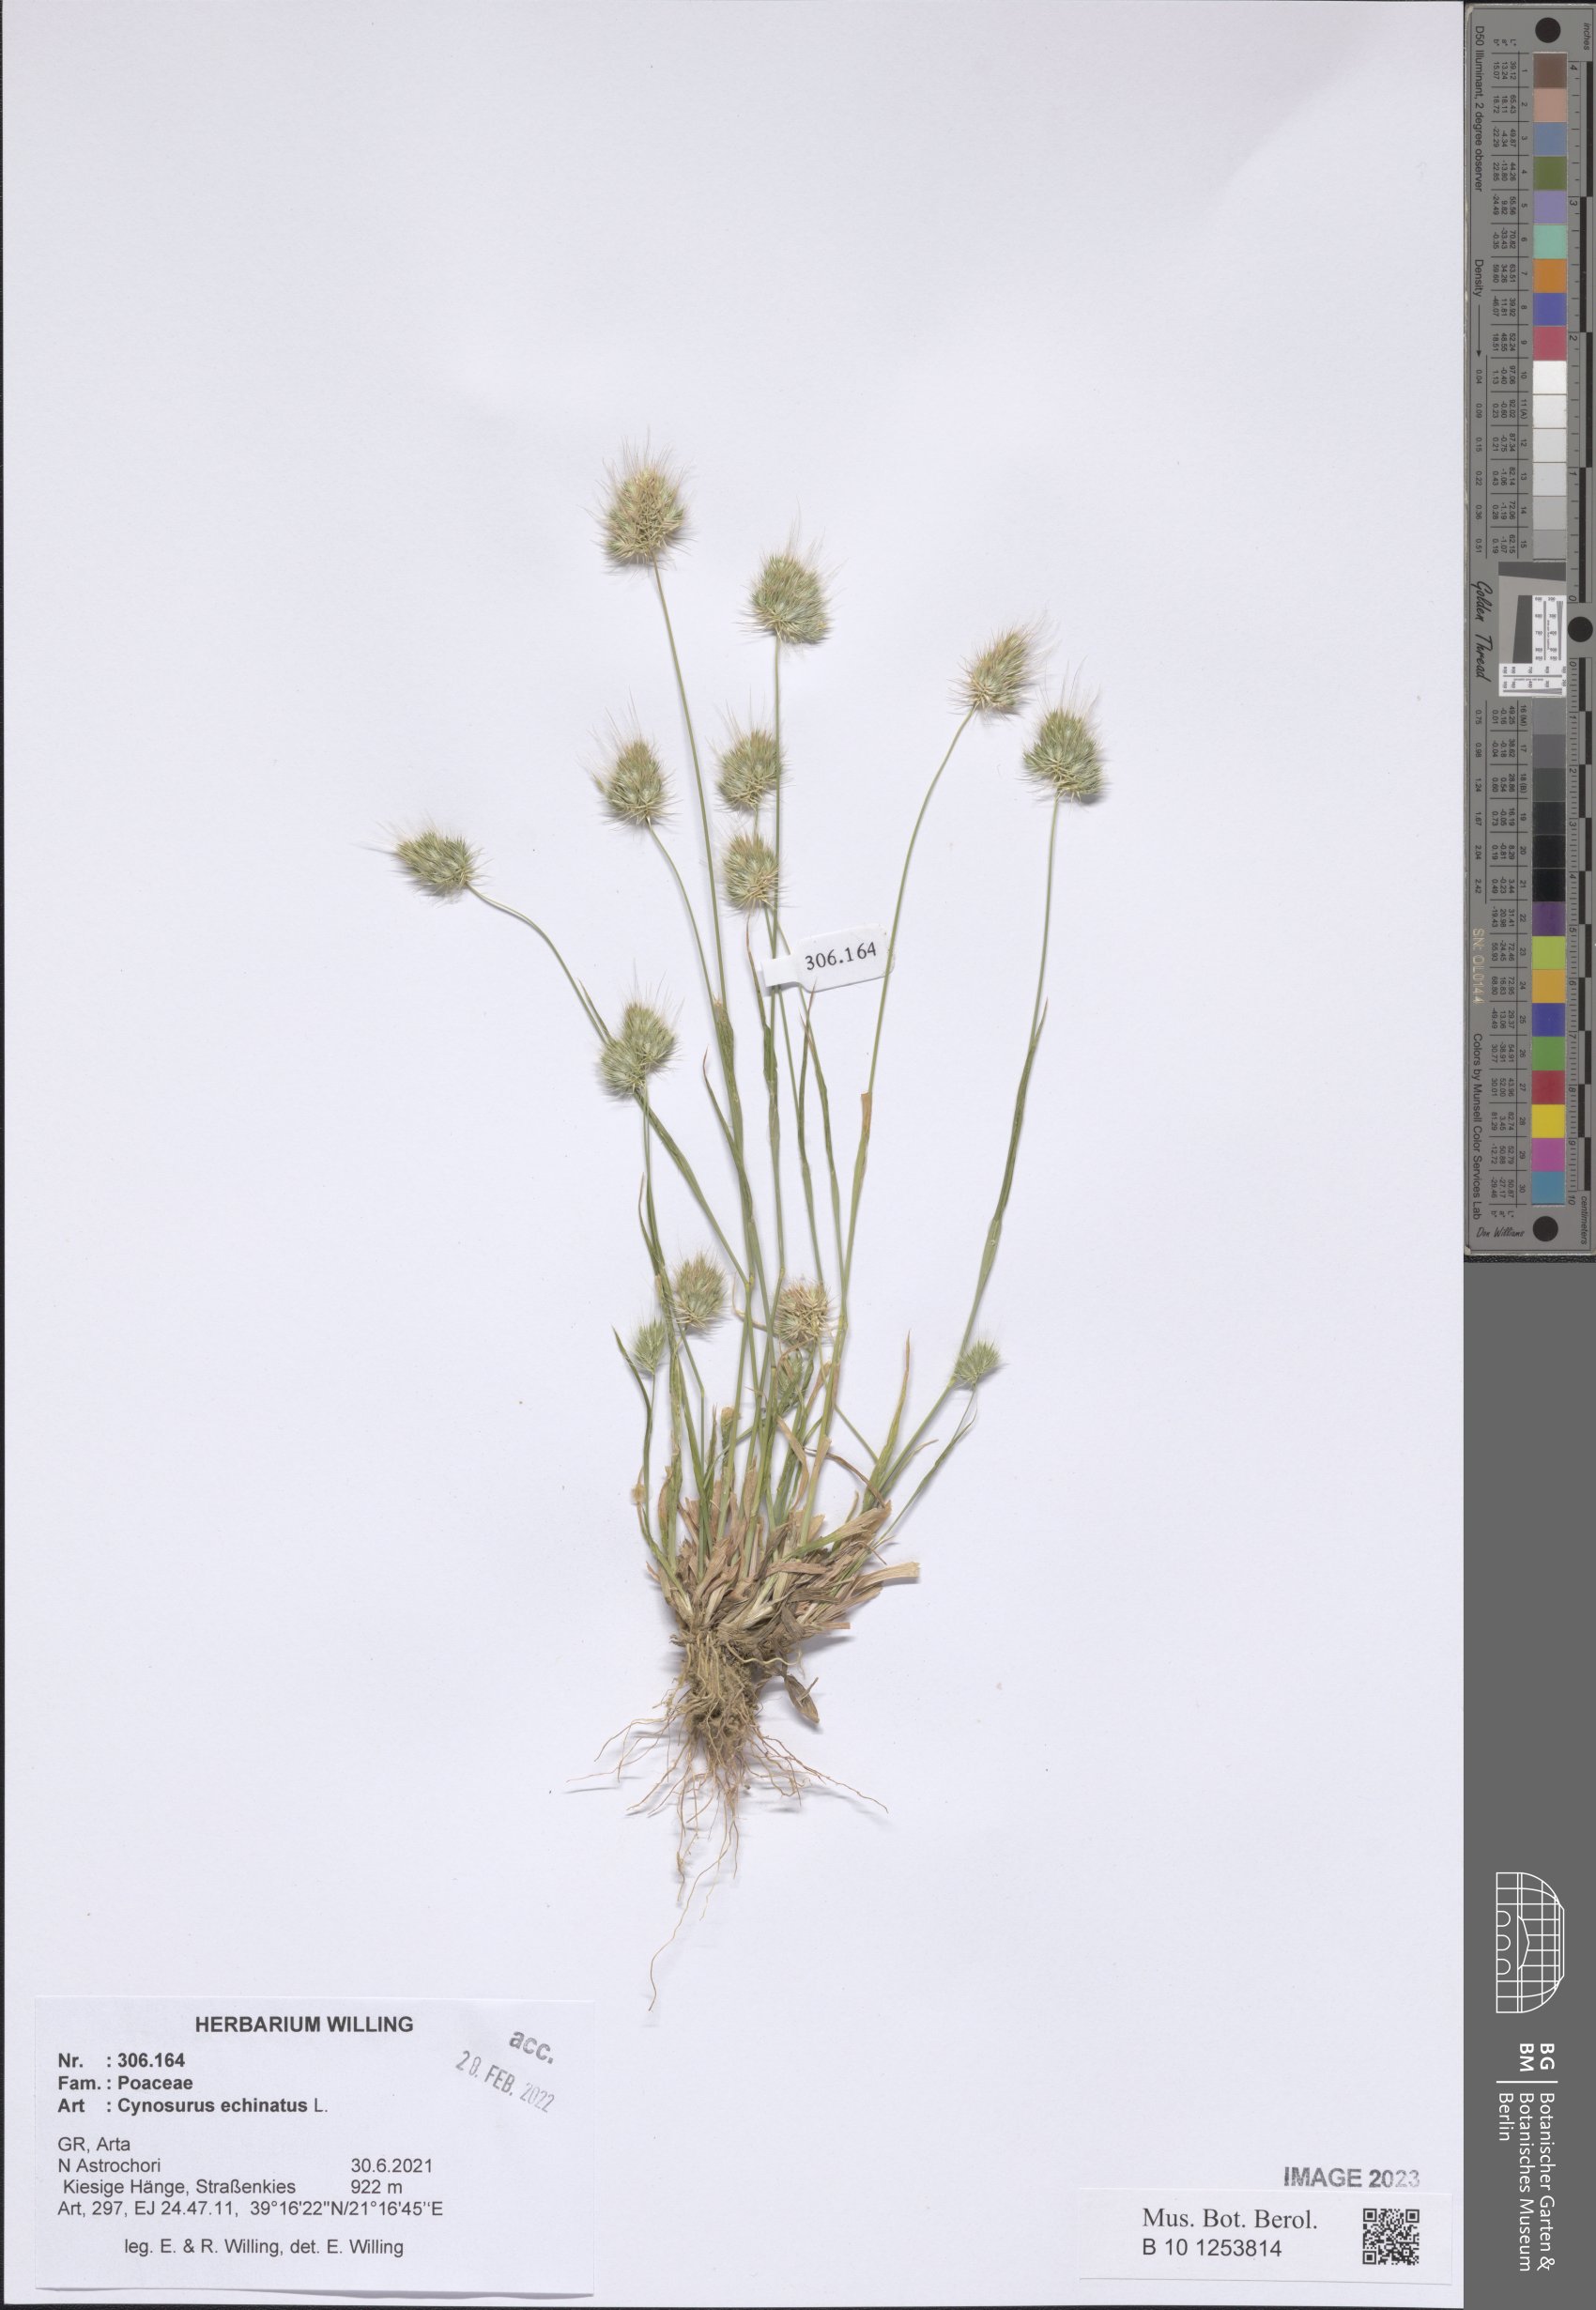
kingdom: Plantae
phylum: Tracheophyta
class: Liliopsida
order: Poales
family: Poaceae
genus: Cynosurus
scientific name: Cynosurus echinatus
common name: Rough dog's-tail
